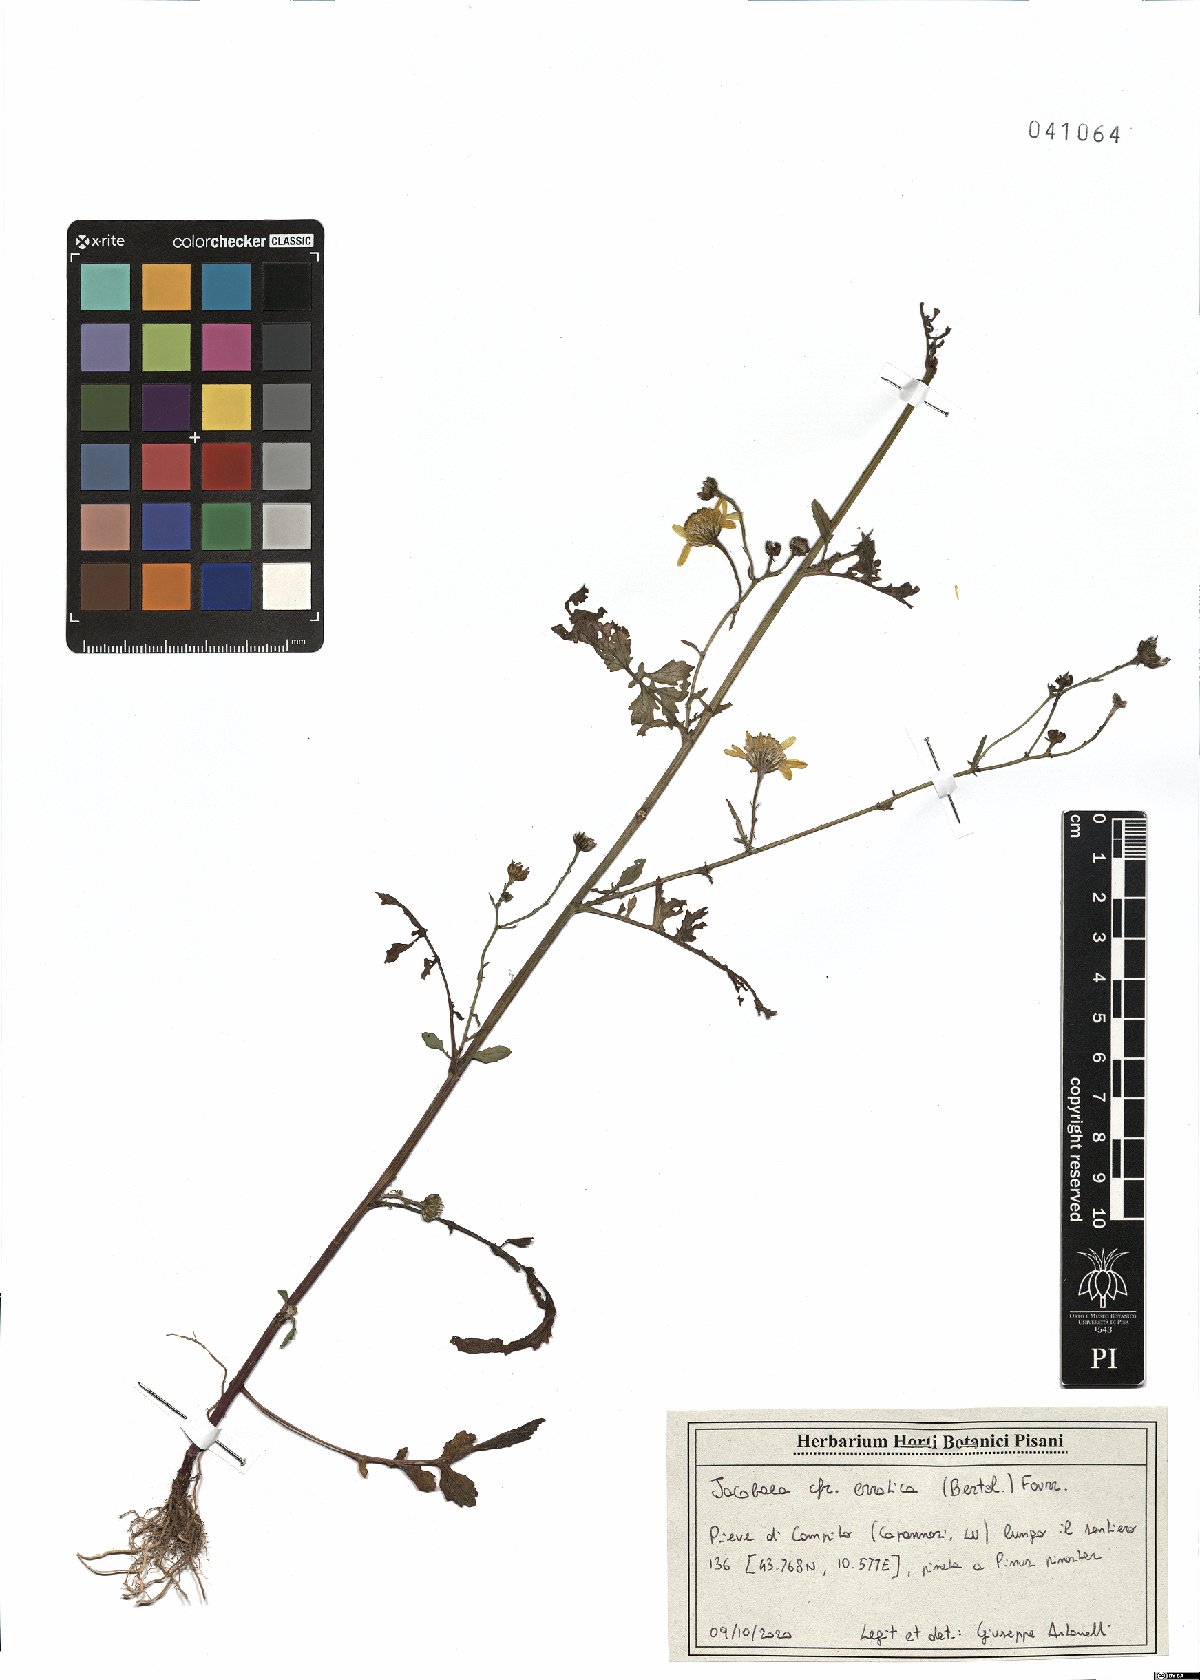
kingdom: Plantae
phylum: Tracheophyta
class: Magnoliopsida
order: Asterales
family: Asteraceae
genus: Jacobaea
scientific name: Jacobaea erratica
